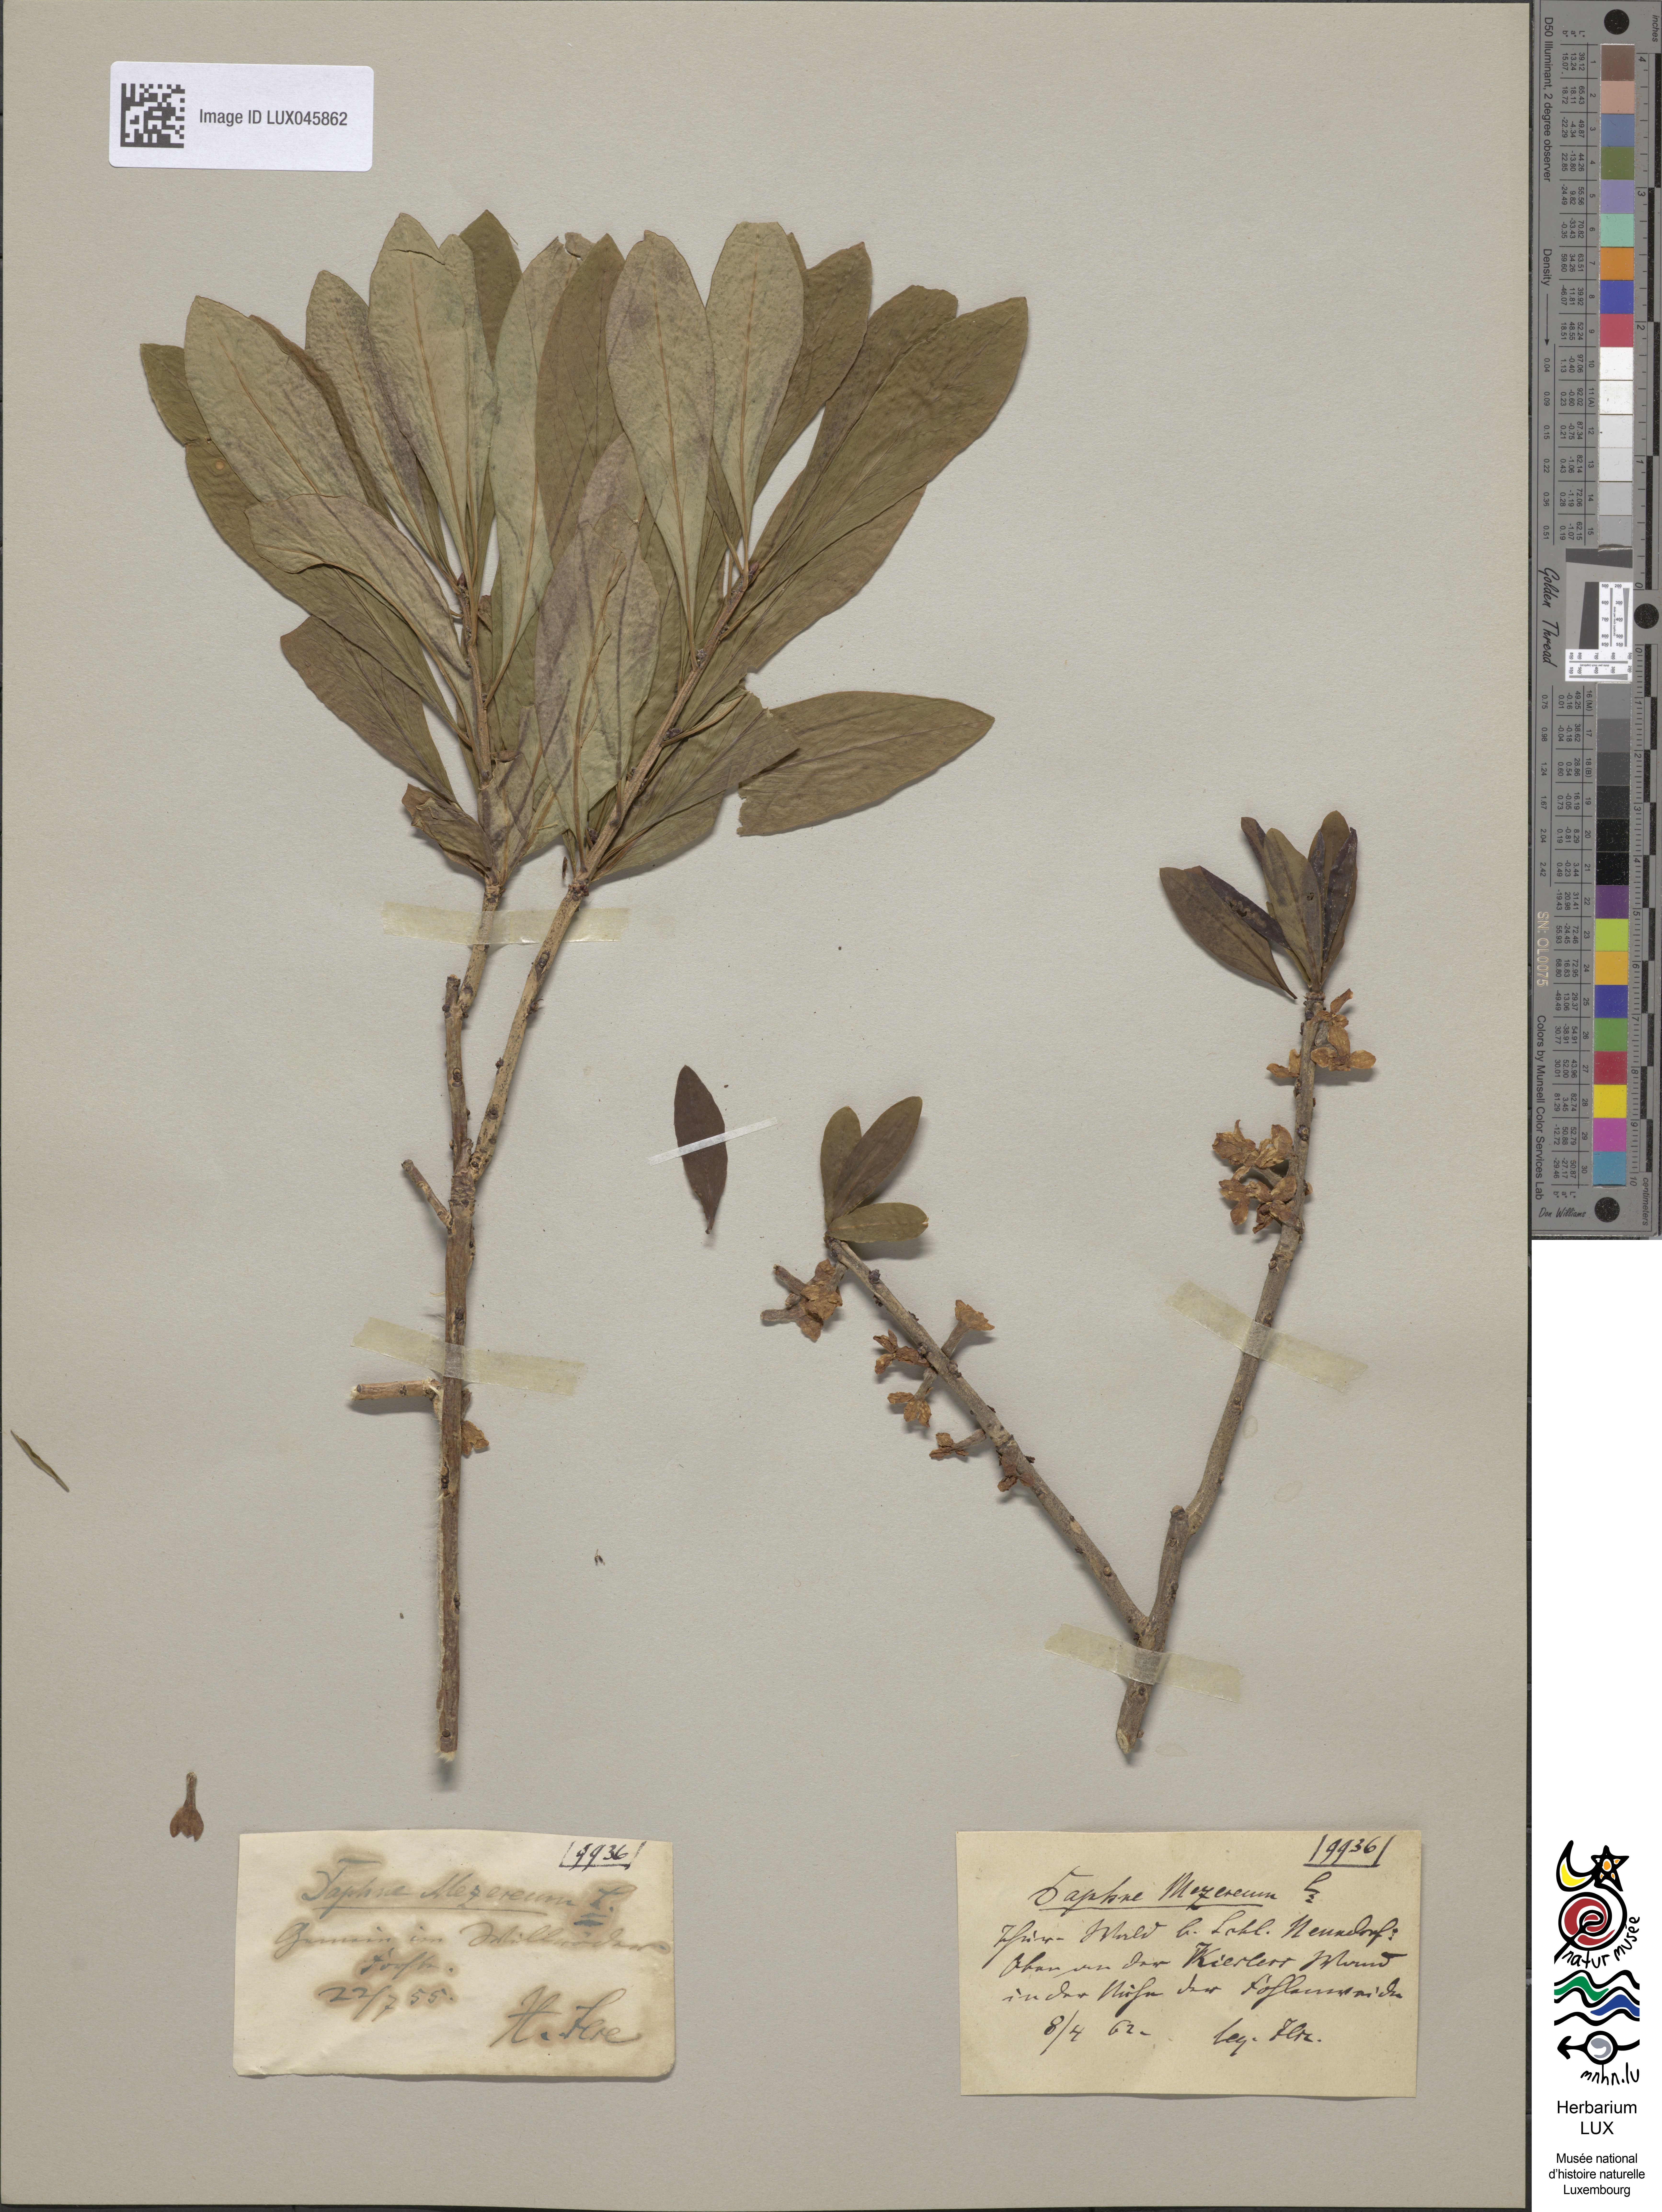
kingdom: Plantae
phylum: Tracheophyta
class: Magnoliopsida
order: Malvales
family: Thymelaeaceae
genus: Daphne
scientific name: Daphne mezereum
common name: Mezereon
